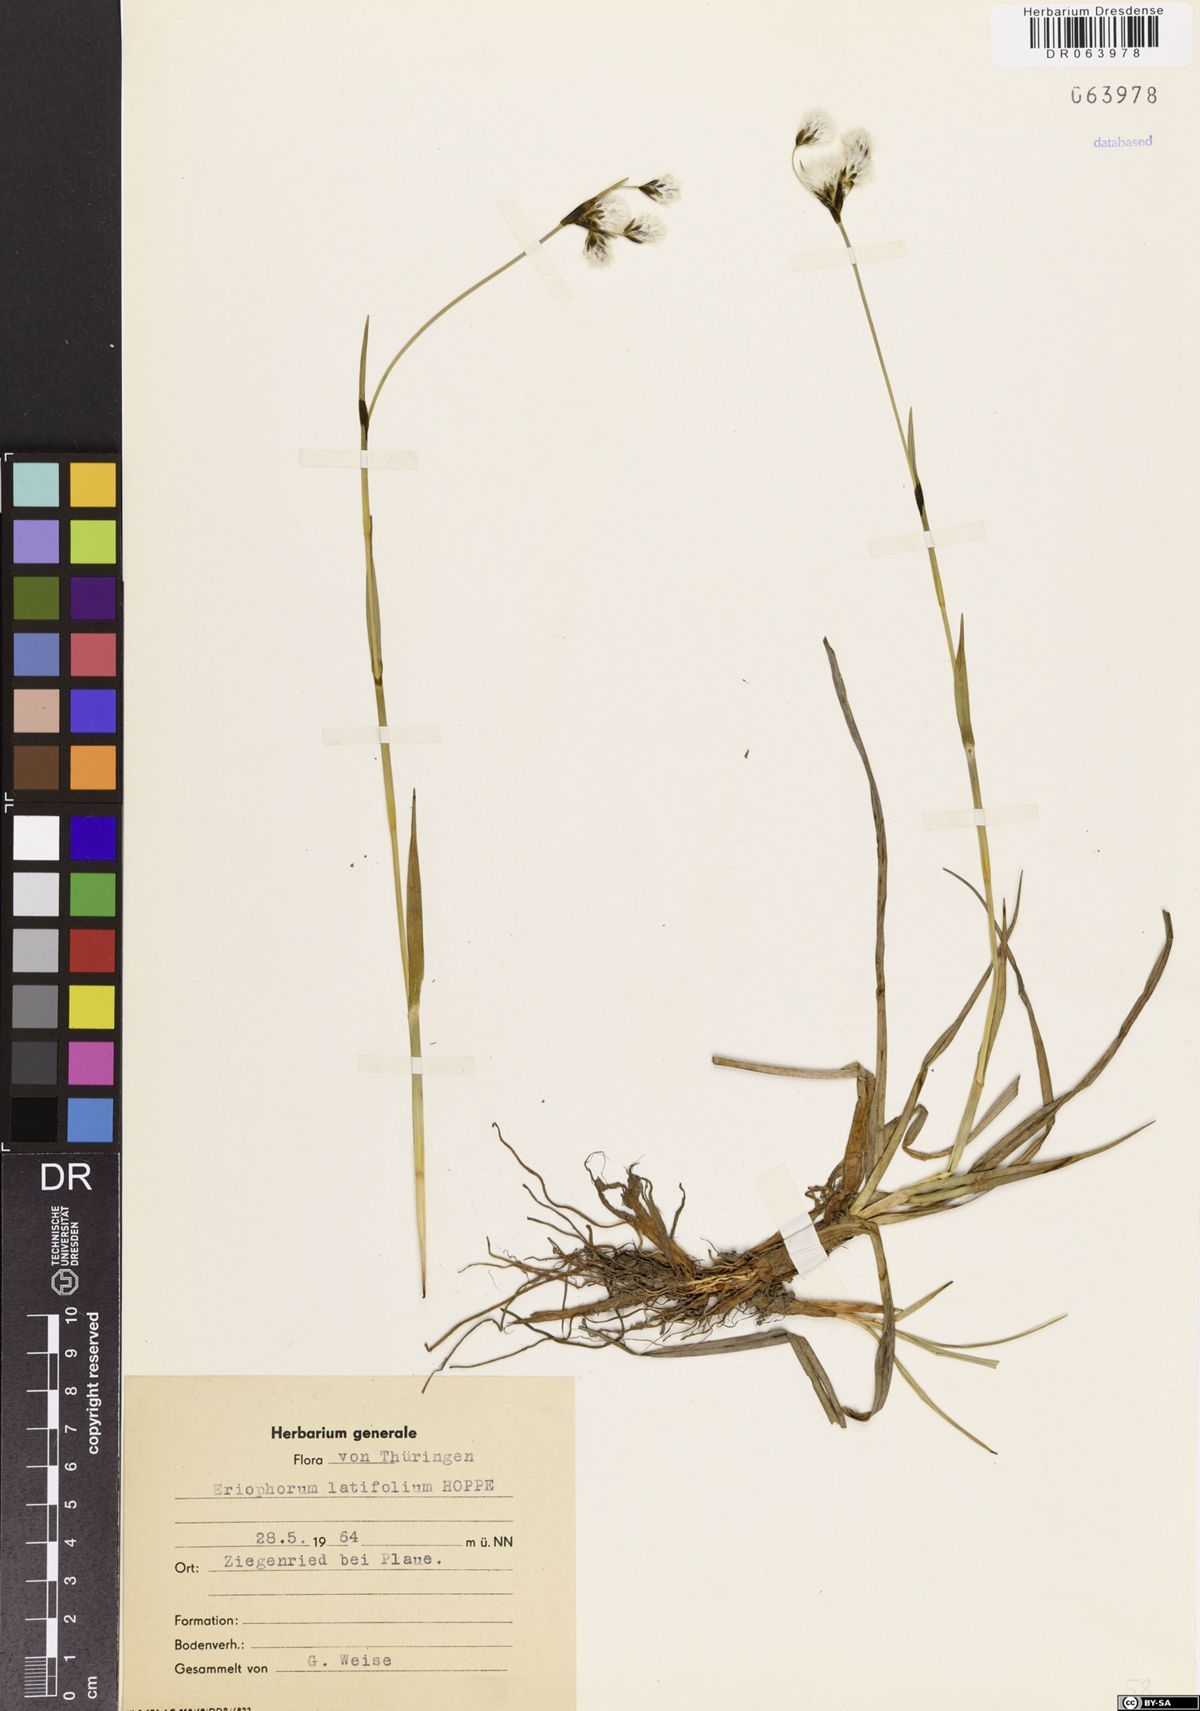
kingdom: Plantae
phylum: Tracheophyta
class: Liliopsida
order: Poales
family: Cyperaceae
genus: Eriophorum
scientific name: Eriophorum latifolium
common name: Broad-leaved cottongrass
